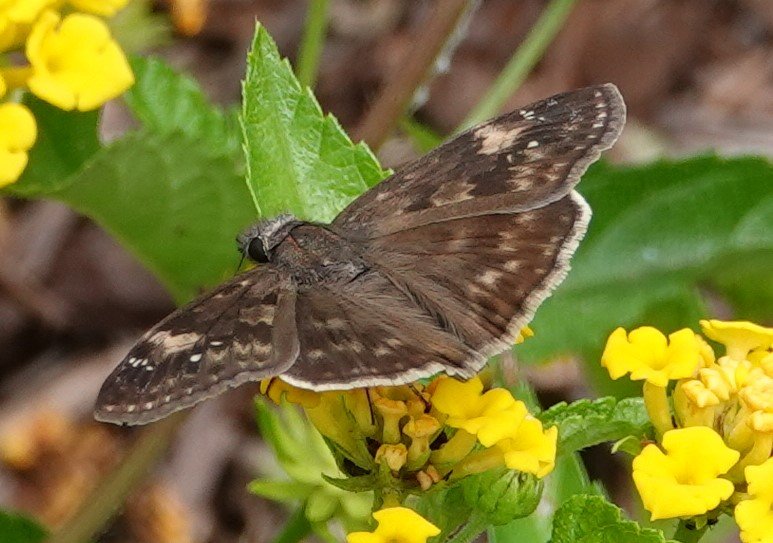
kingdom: Animalia
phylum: Arthropoda
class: Insecta
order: Lepidoptera
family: Hesperiidae
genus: Erynnis
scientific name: Erynnis zarucco
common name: Zarucco Duskywing
